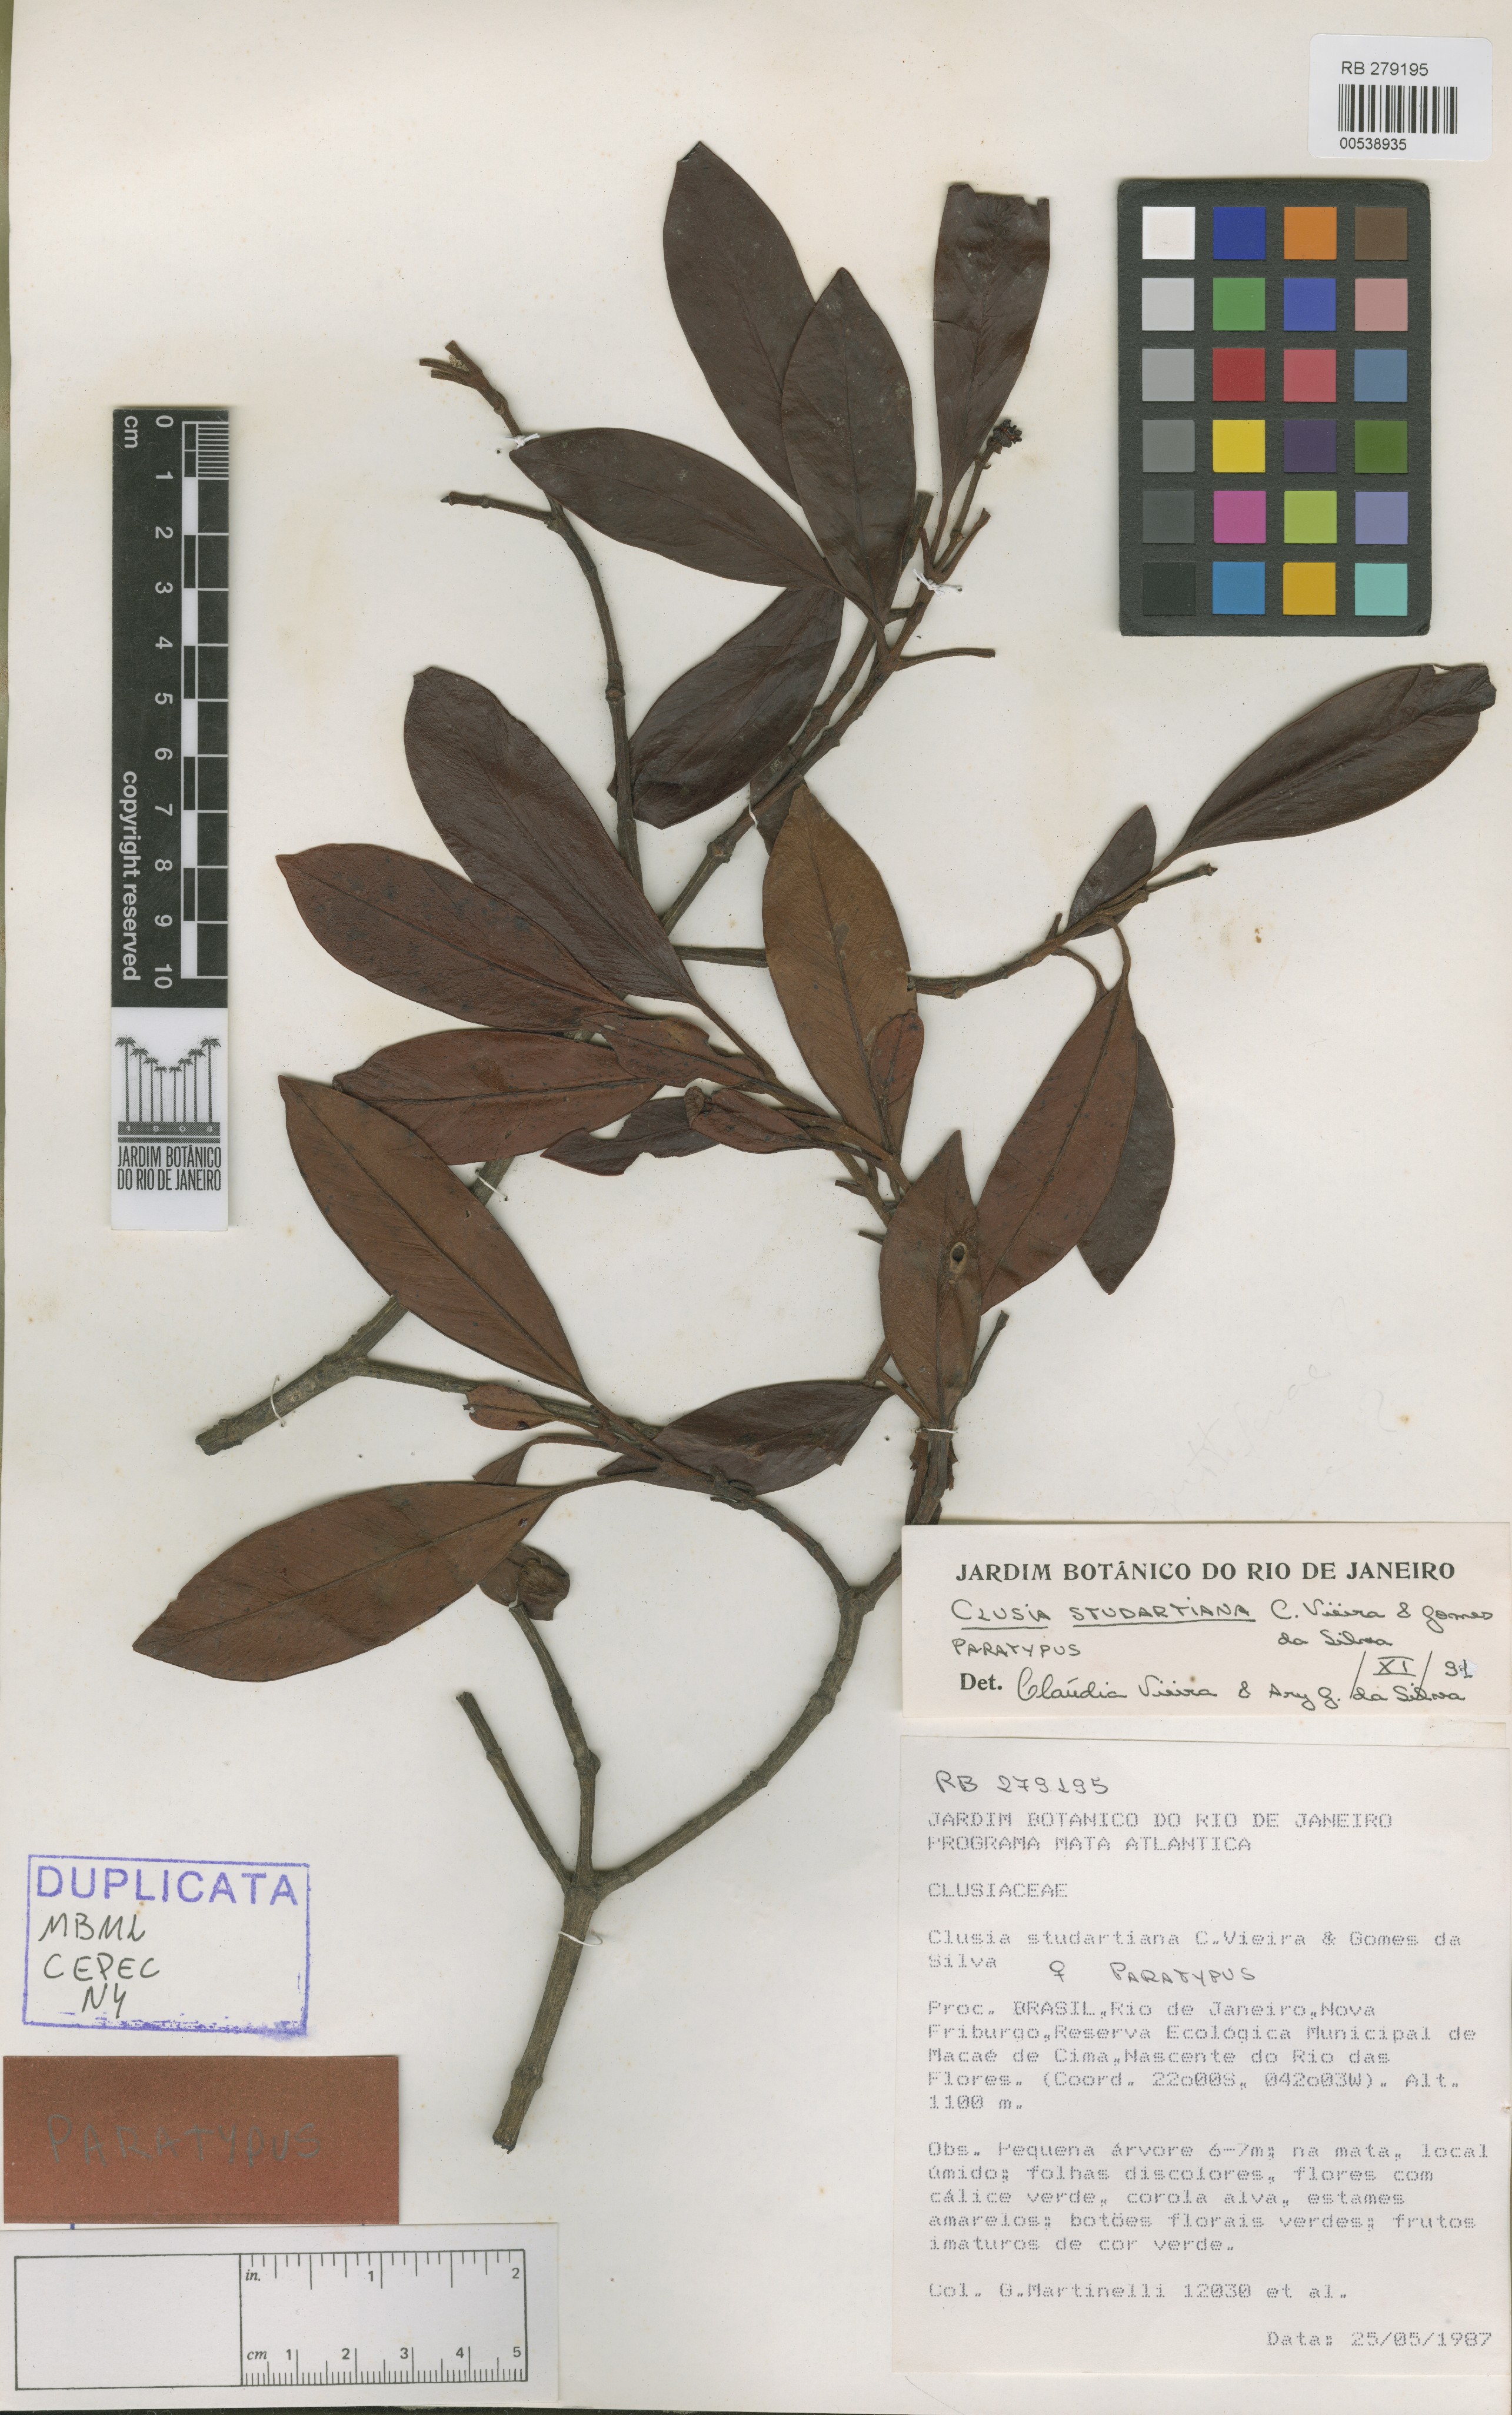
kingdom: Plantae
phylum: Tracheophyta
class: Magnoliopsida
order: Malpighiales
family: Clusiaceae
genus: Clusia
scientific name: Clusia studartiana
